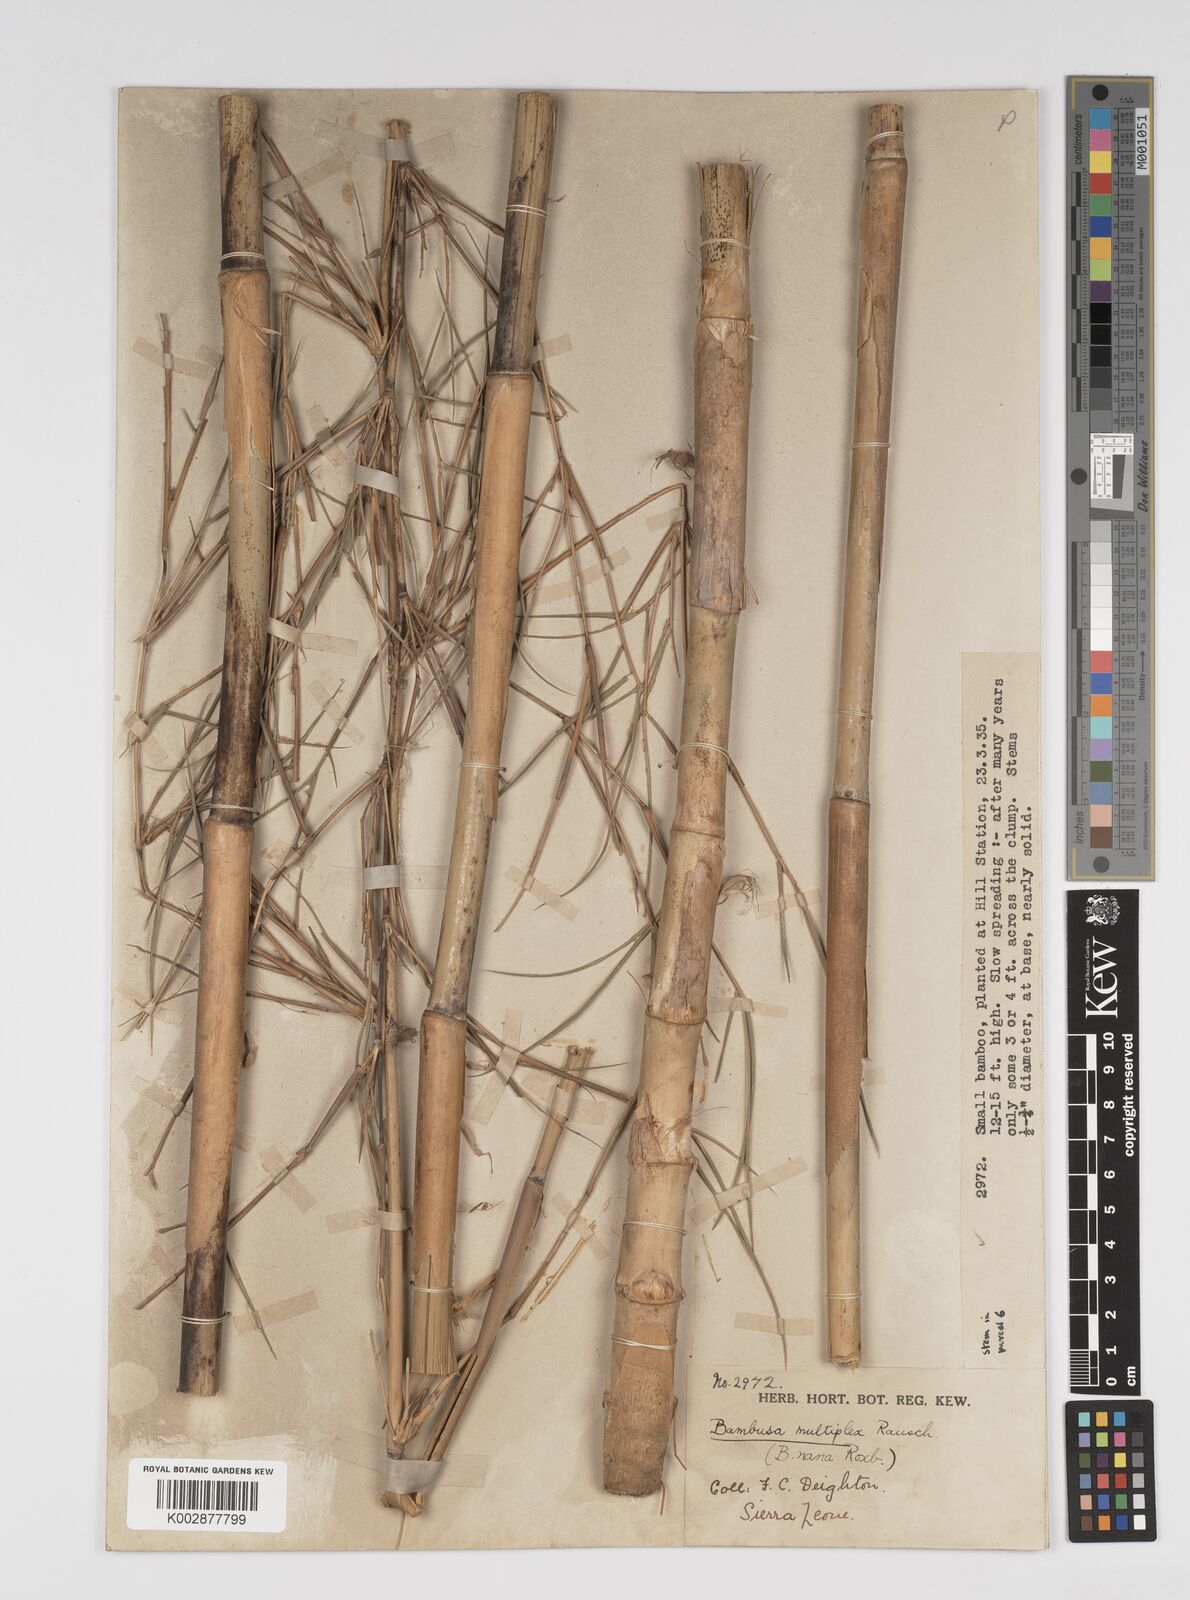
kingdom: Plantae
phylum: Tracheophyta
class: Liliopsida
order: Poales
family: Poaceae
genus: Bambusa
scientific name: Bambusa multiplex
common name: Hedge bamboo
